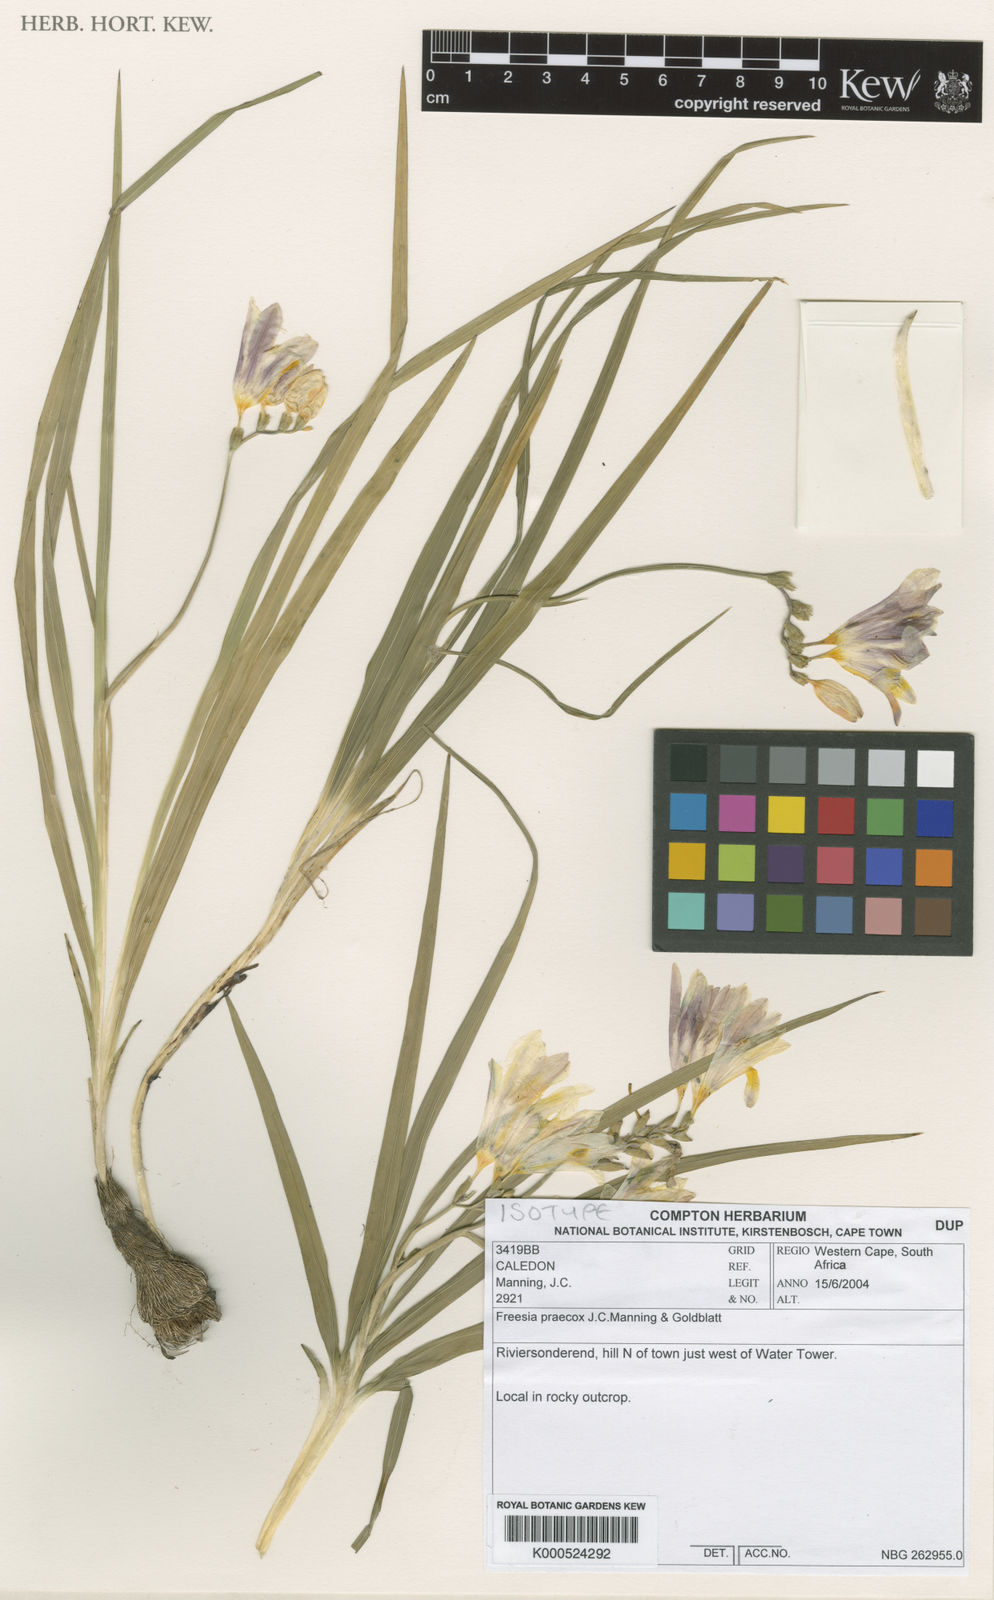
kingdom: Plantae
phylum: Tracheophyta
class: Liliopsida
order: Asparagales
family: Iridaceae
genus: Freesia
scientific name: Freesia praecox
